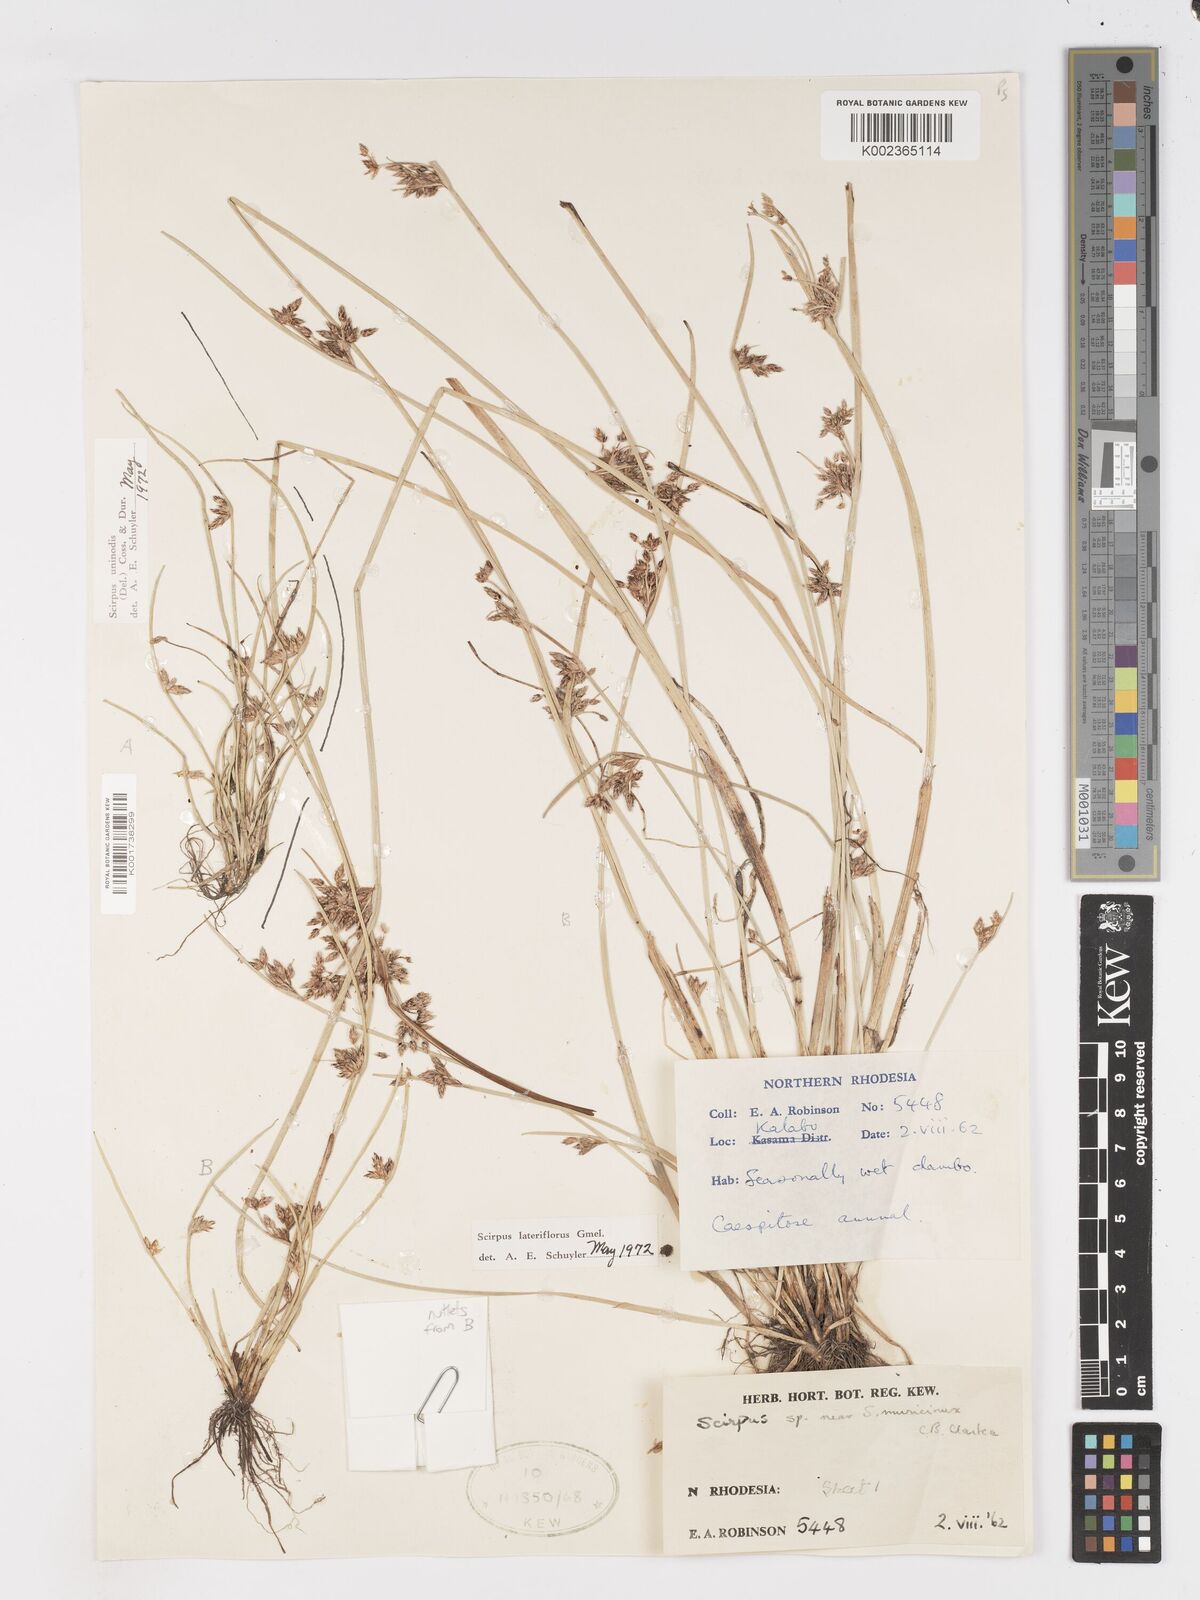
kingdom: Plantae
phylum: Tracheophyta
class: Liliopsida
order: Poales
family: Cyperaceae
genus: Schoenoplectiella
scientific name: Schoenoplectiella erecta
